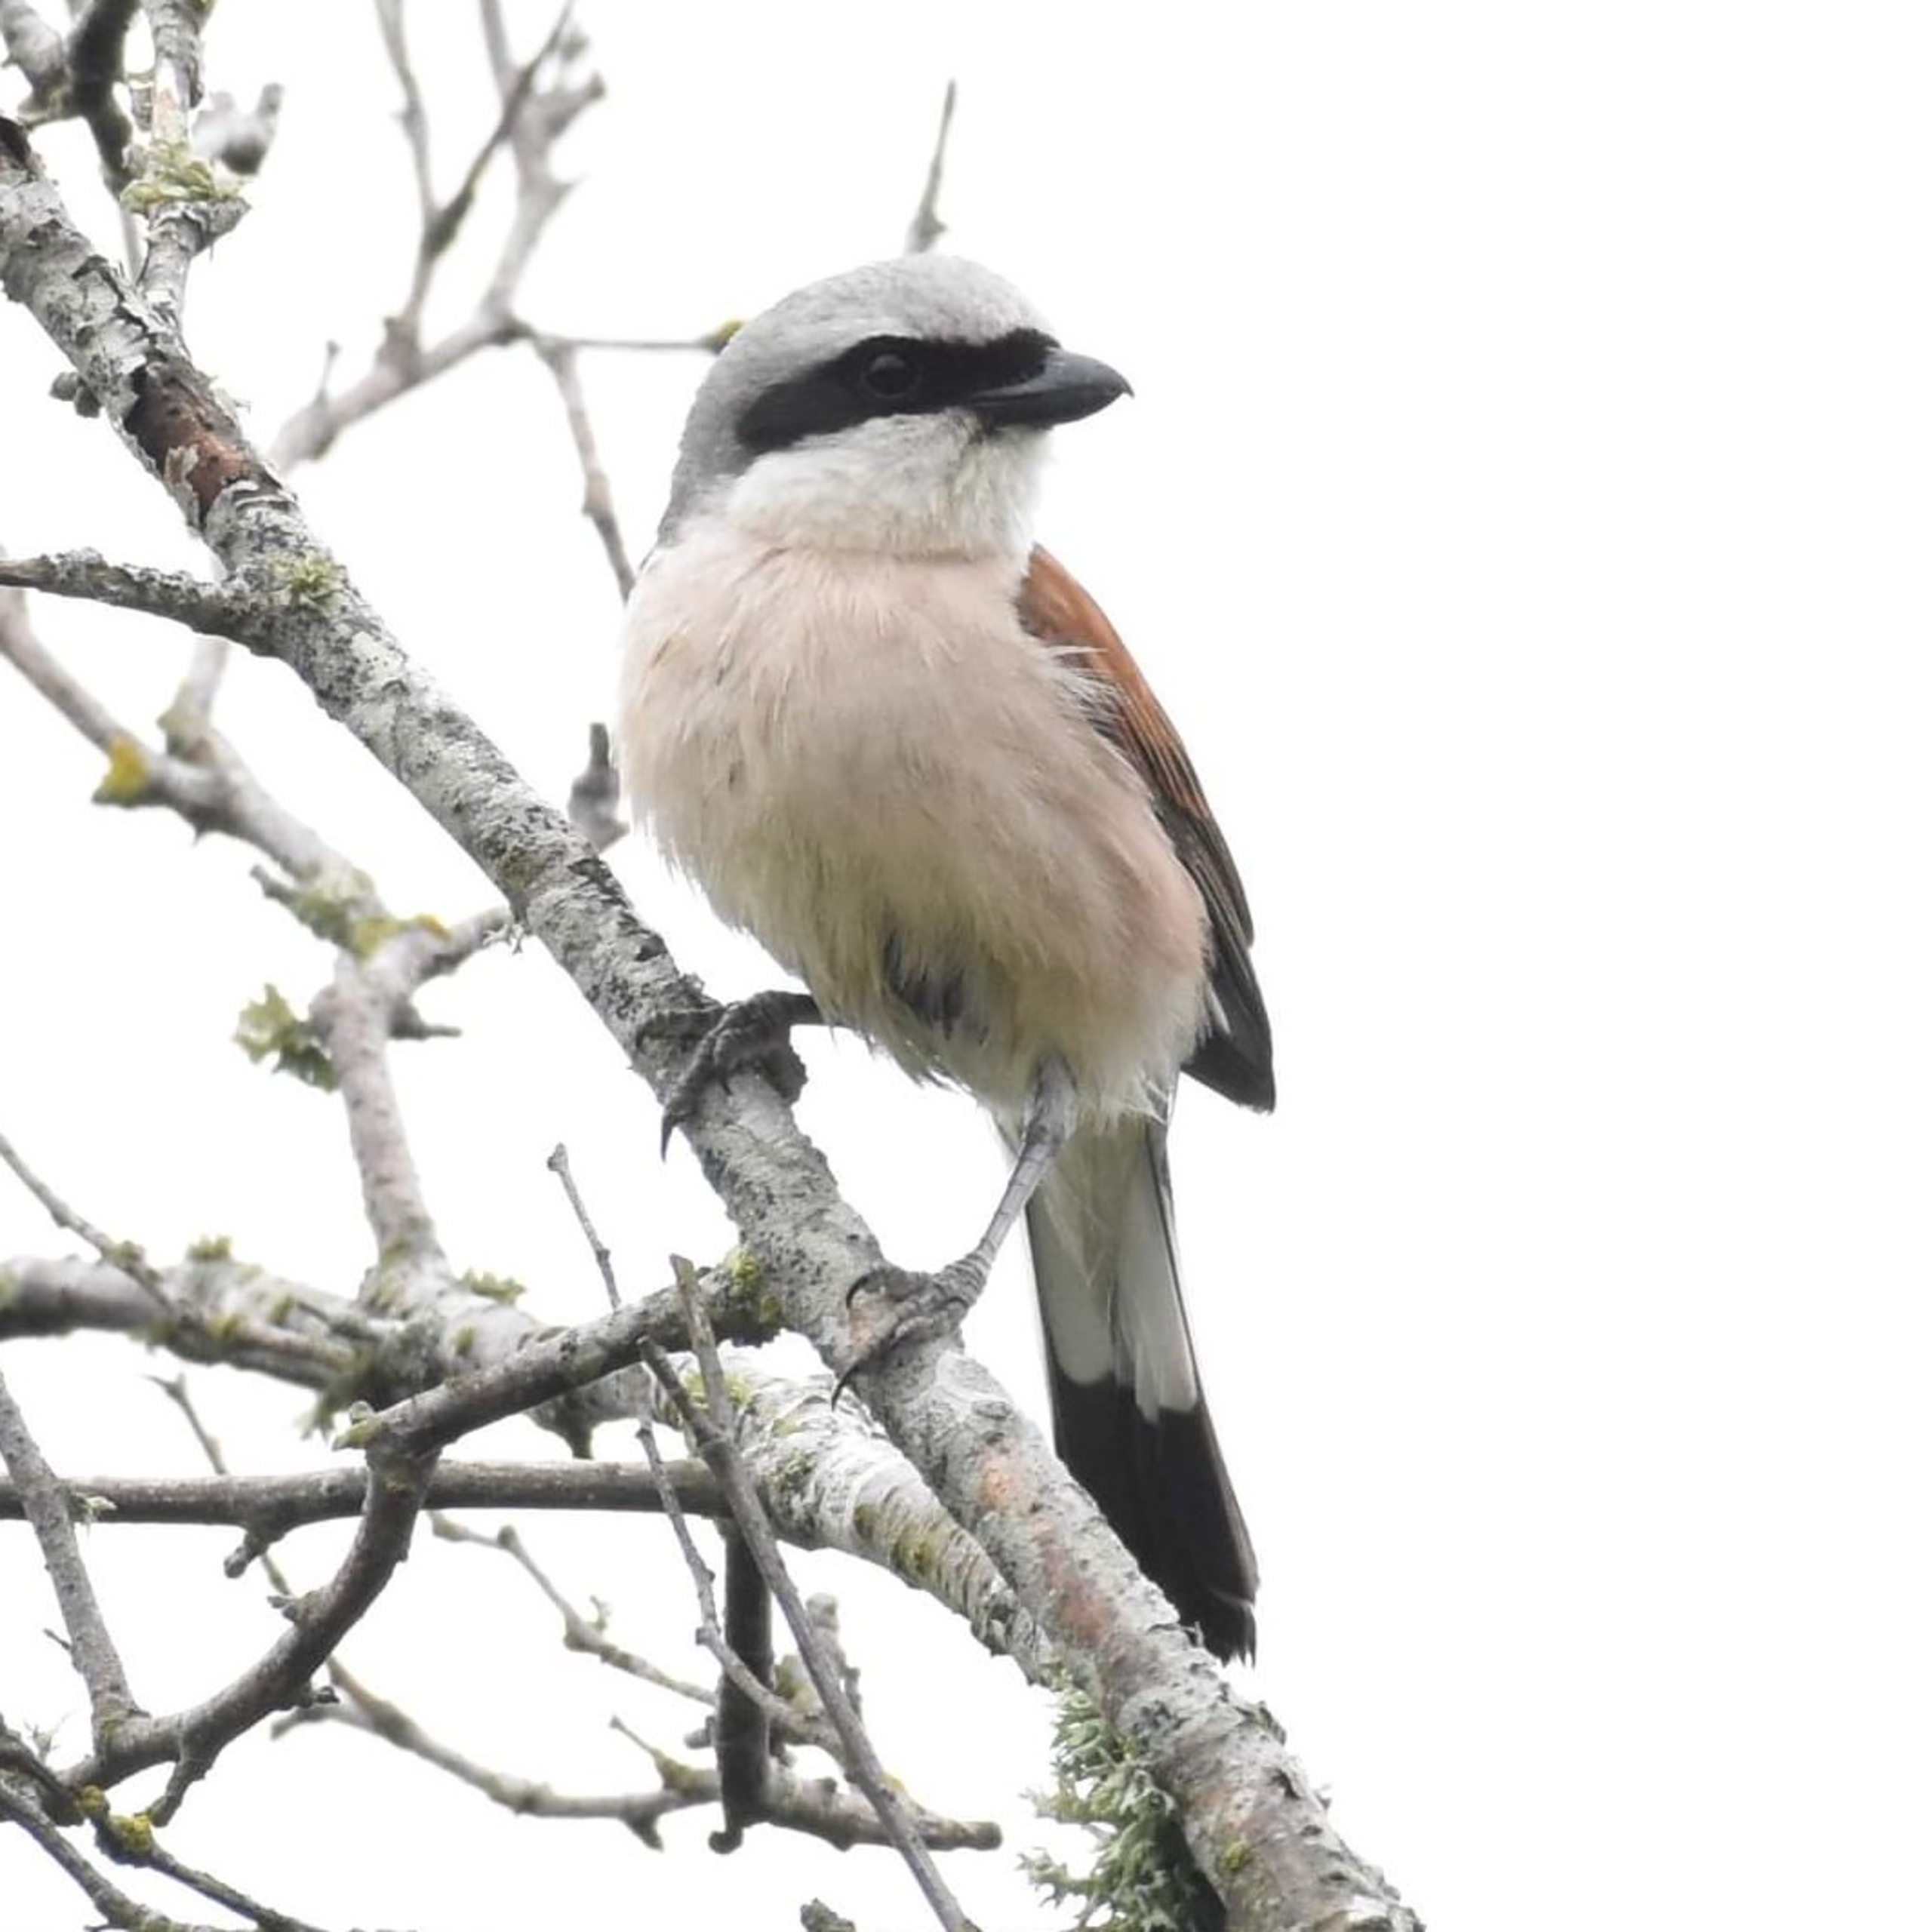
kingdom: Animalia
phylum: Chordata
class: Aves
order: Passeriformes
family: Laniidae
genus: Lanius
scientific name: Lanius collurio
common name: Rødrygget tornskade
